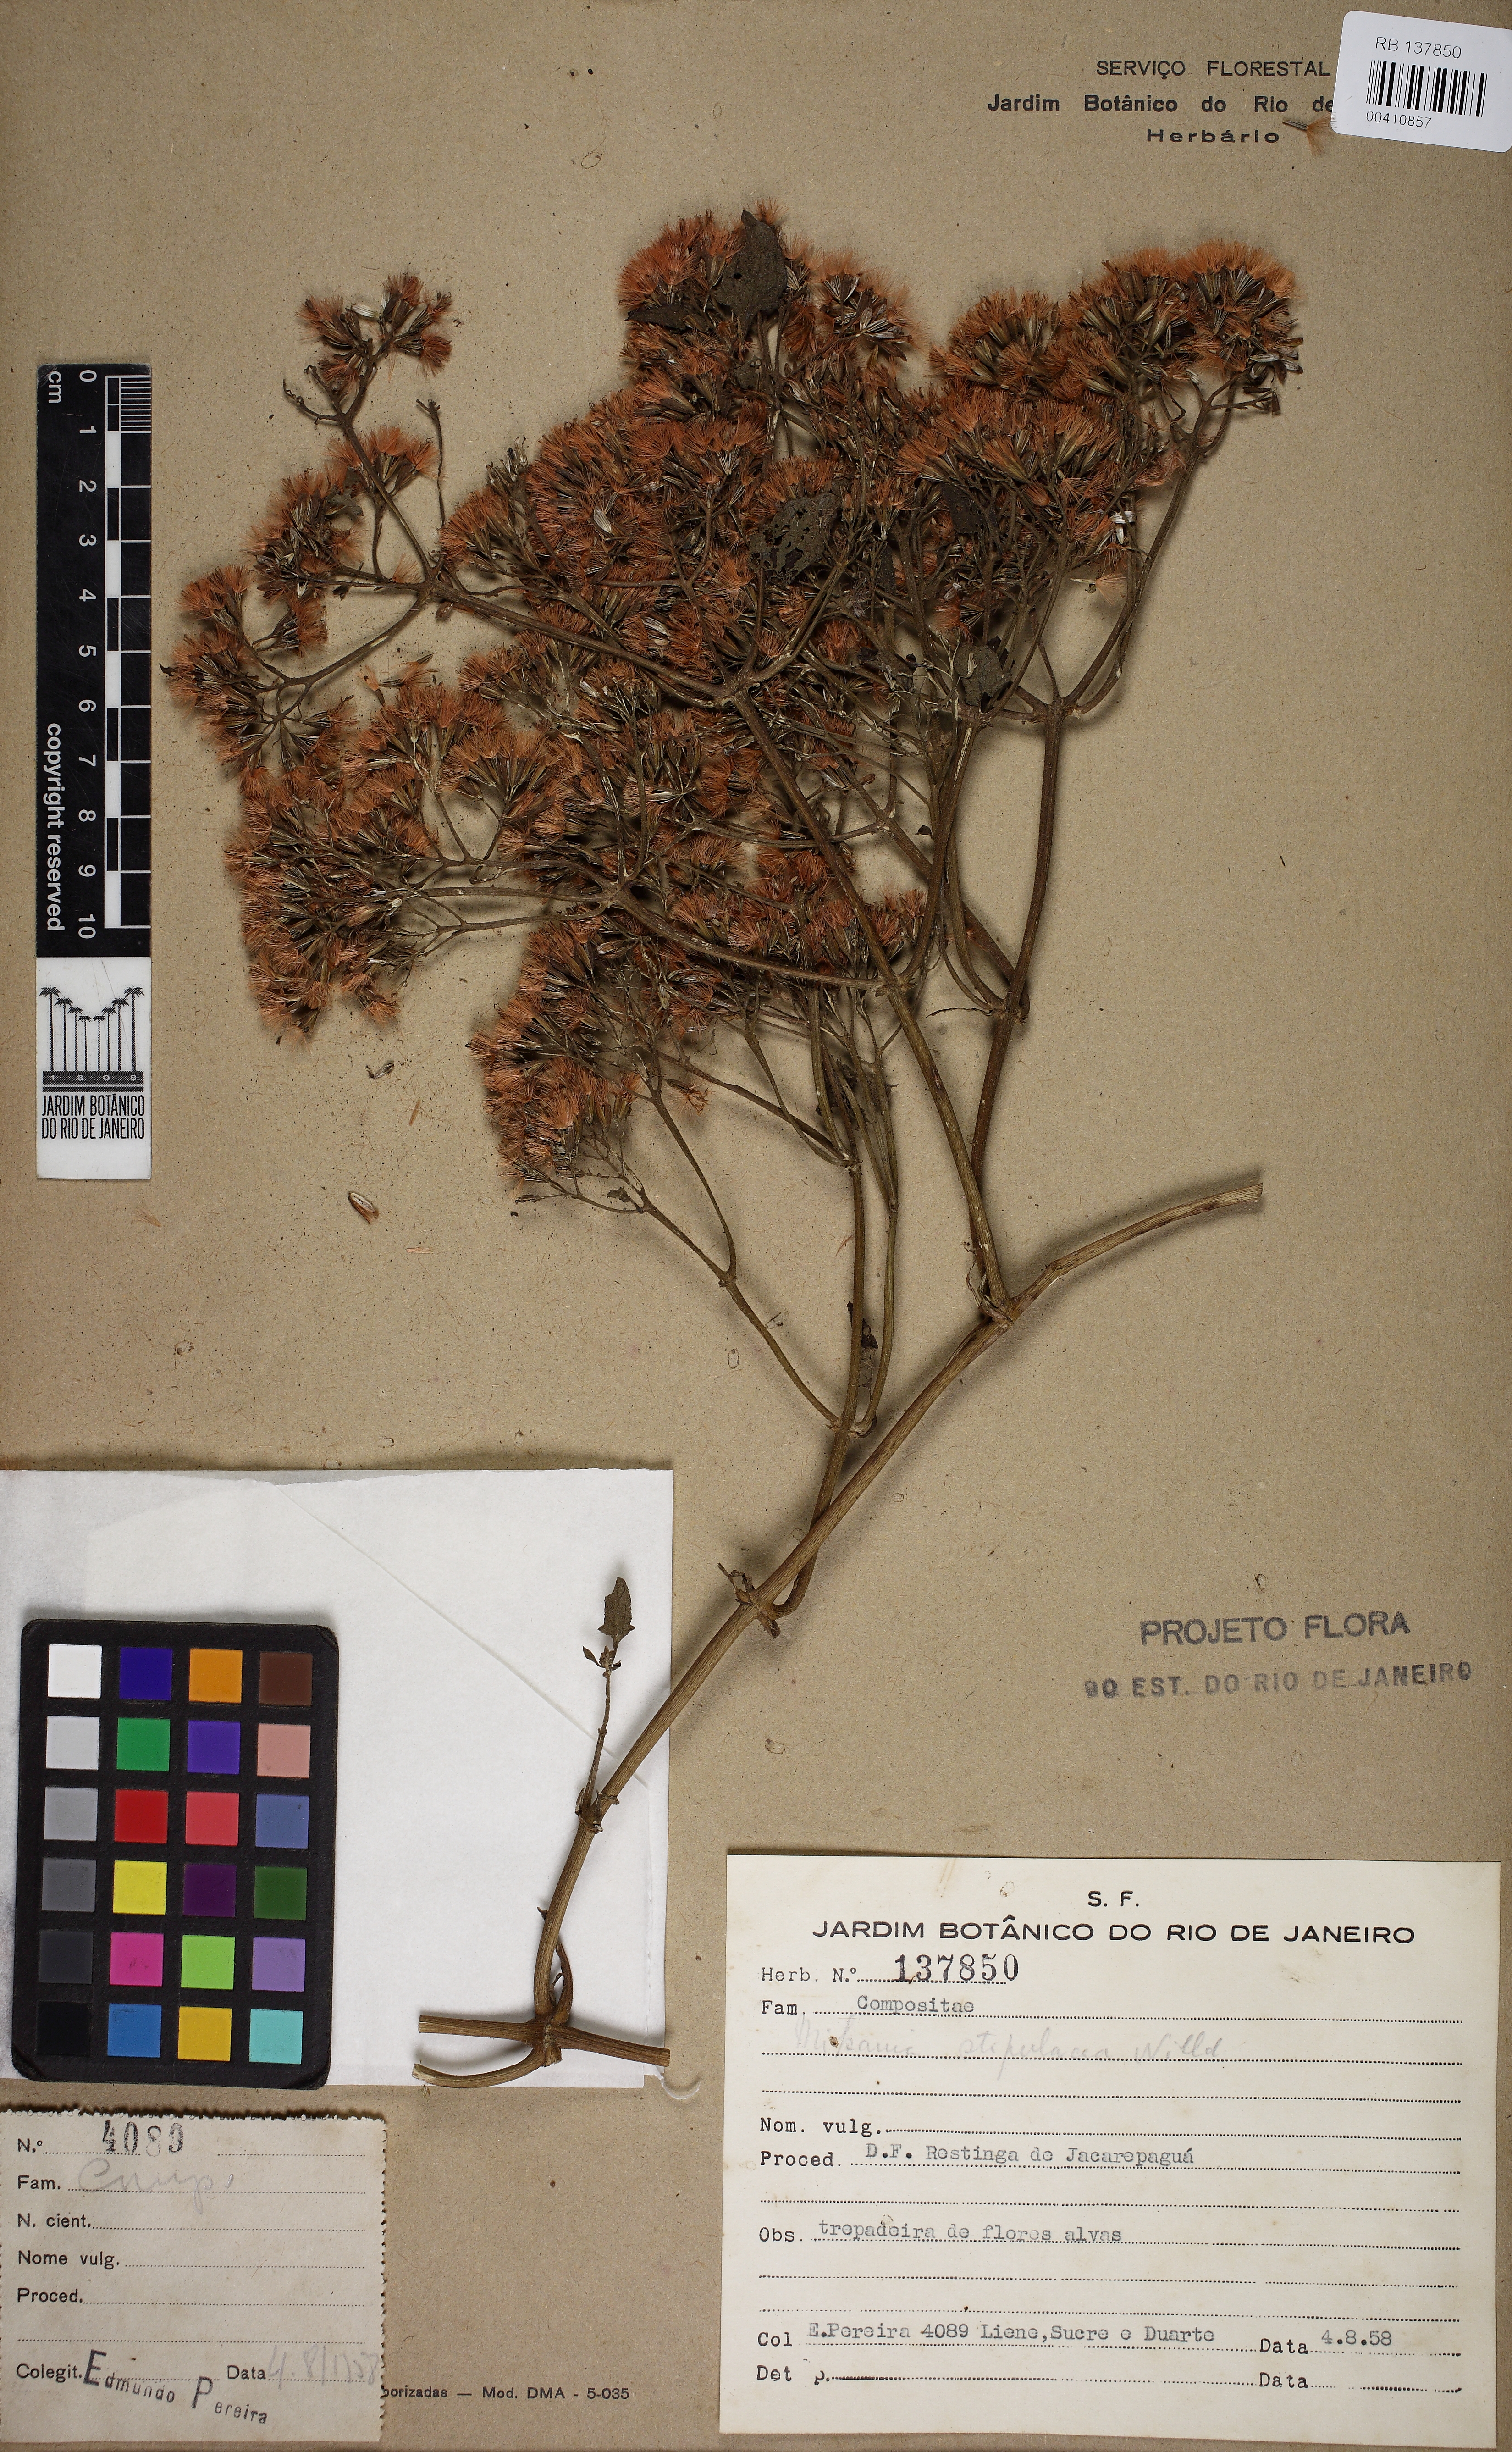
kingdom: Plantae
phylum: Tracheophyta
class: Magnoliopsida
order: Asterales
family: Asteraceae
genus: Mikania
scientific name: Mikania stipulacea
